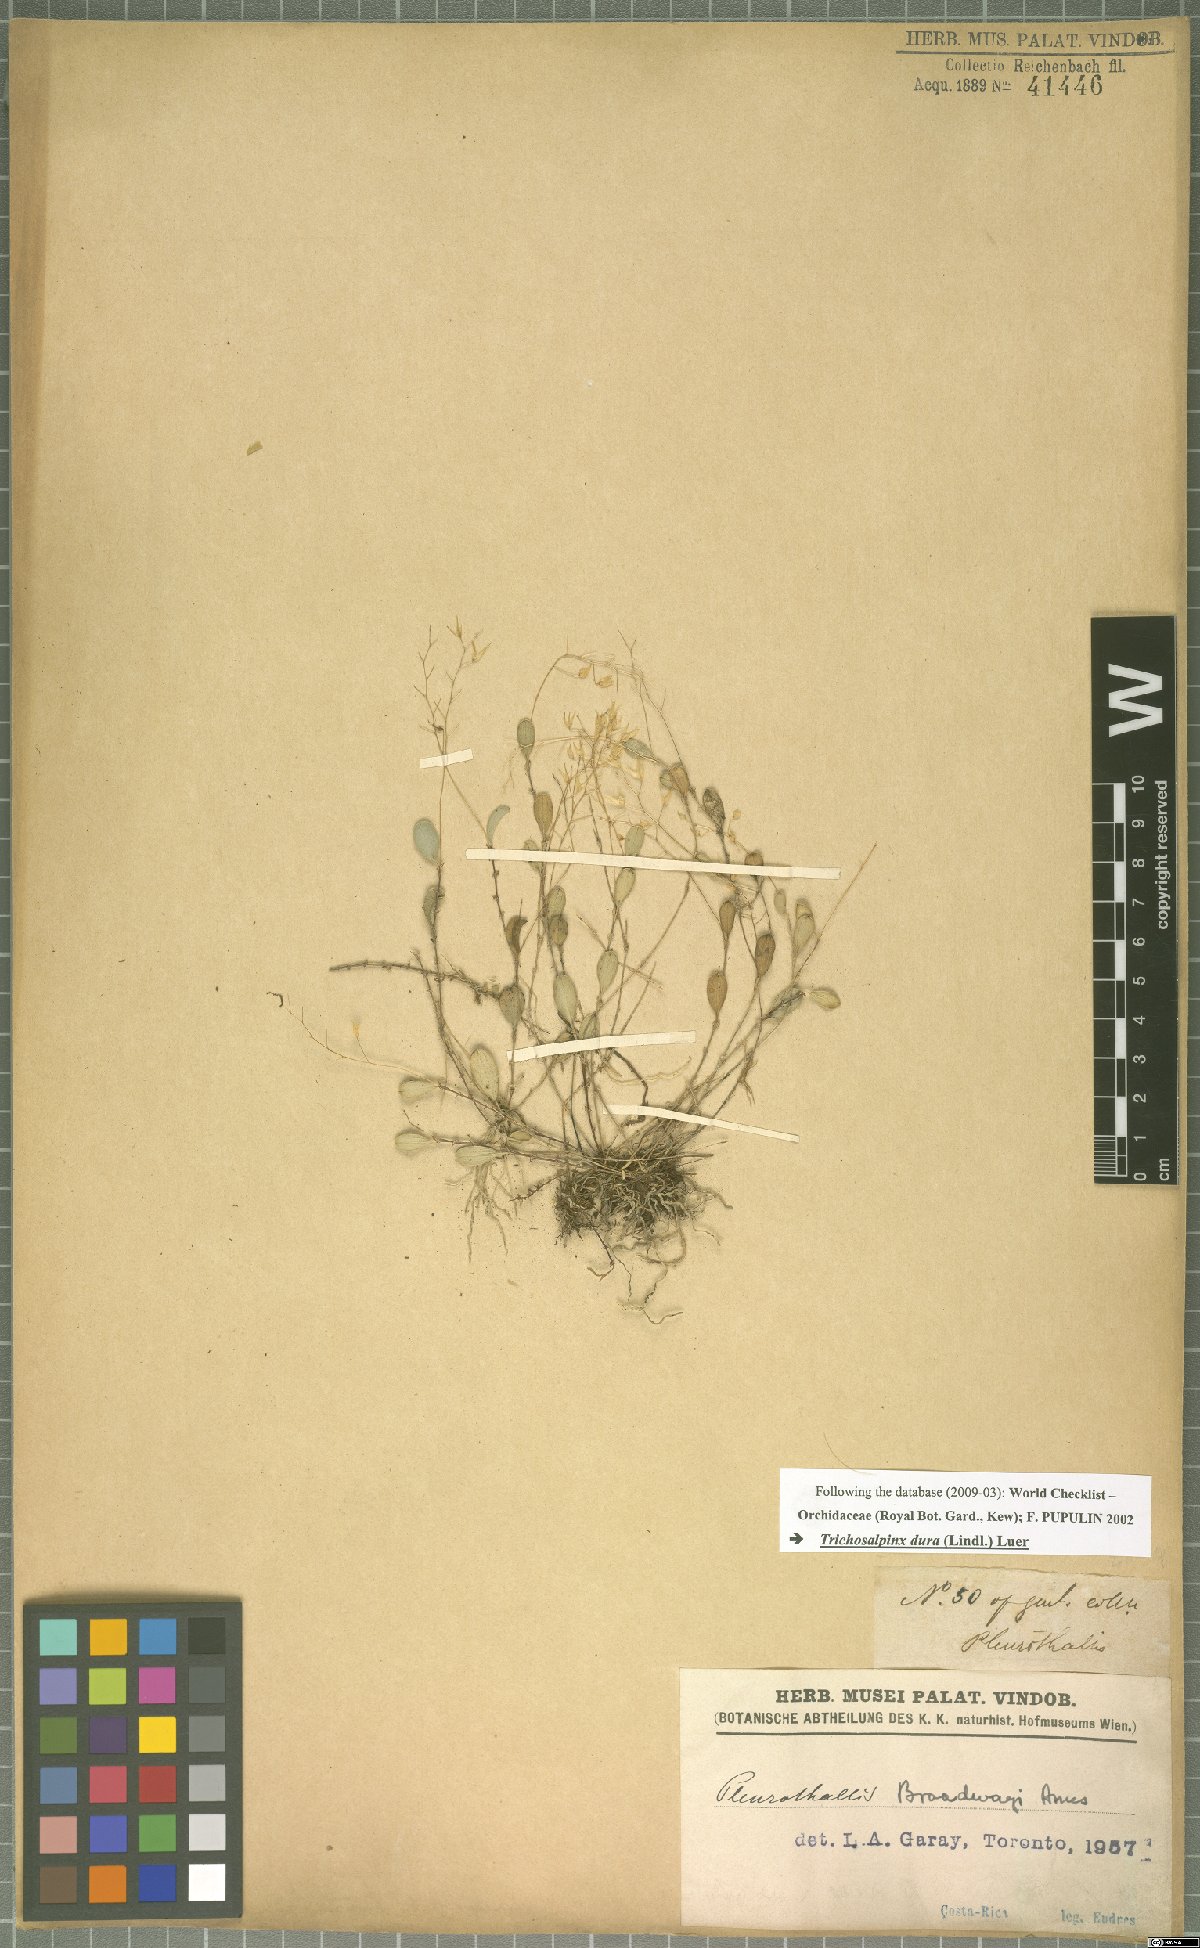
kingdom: Plantae
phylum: Tracheophyta
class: Liliopsida
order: Asparagales
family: Orchidaceae
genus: Trichosalpinx
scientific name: Trichosalpinx dura
